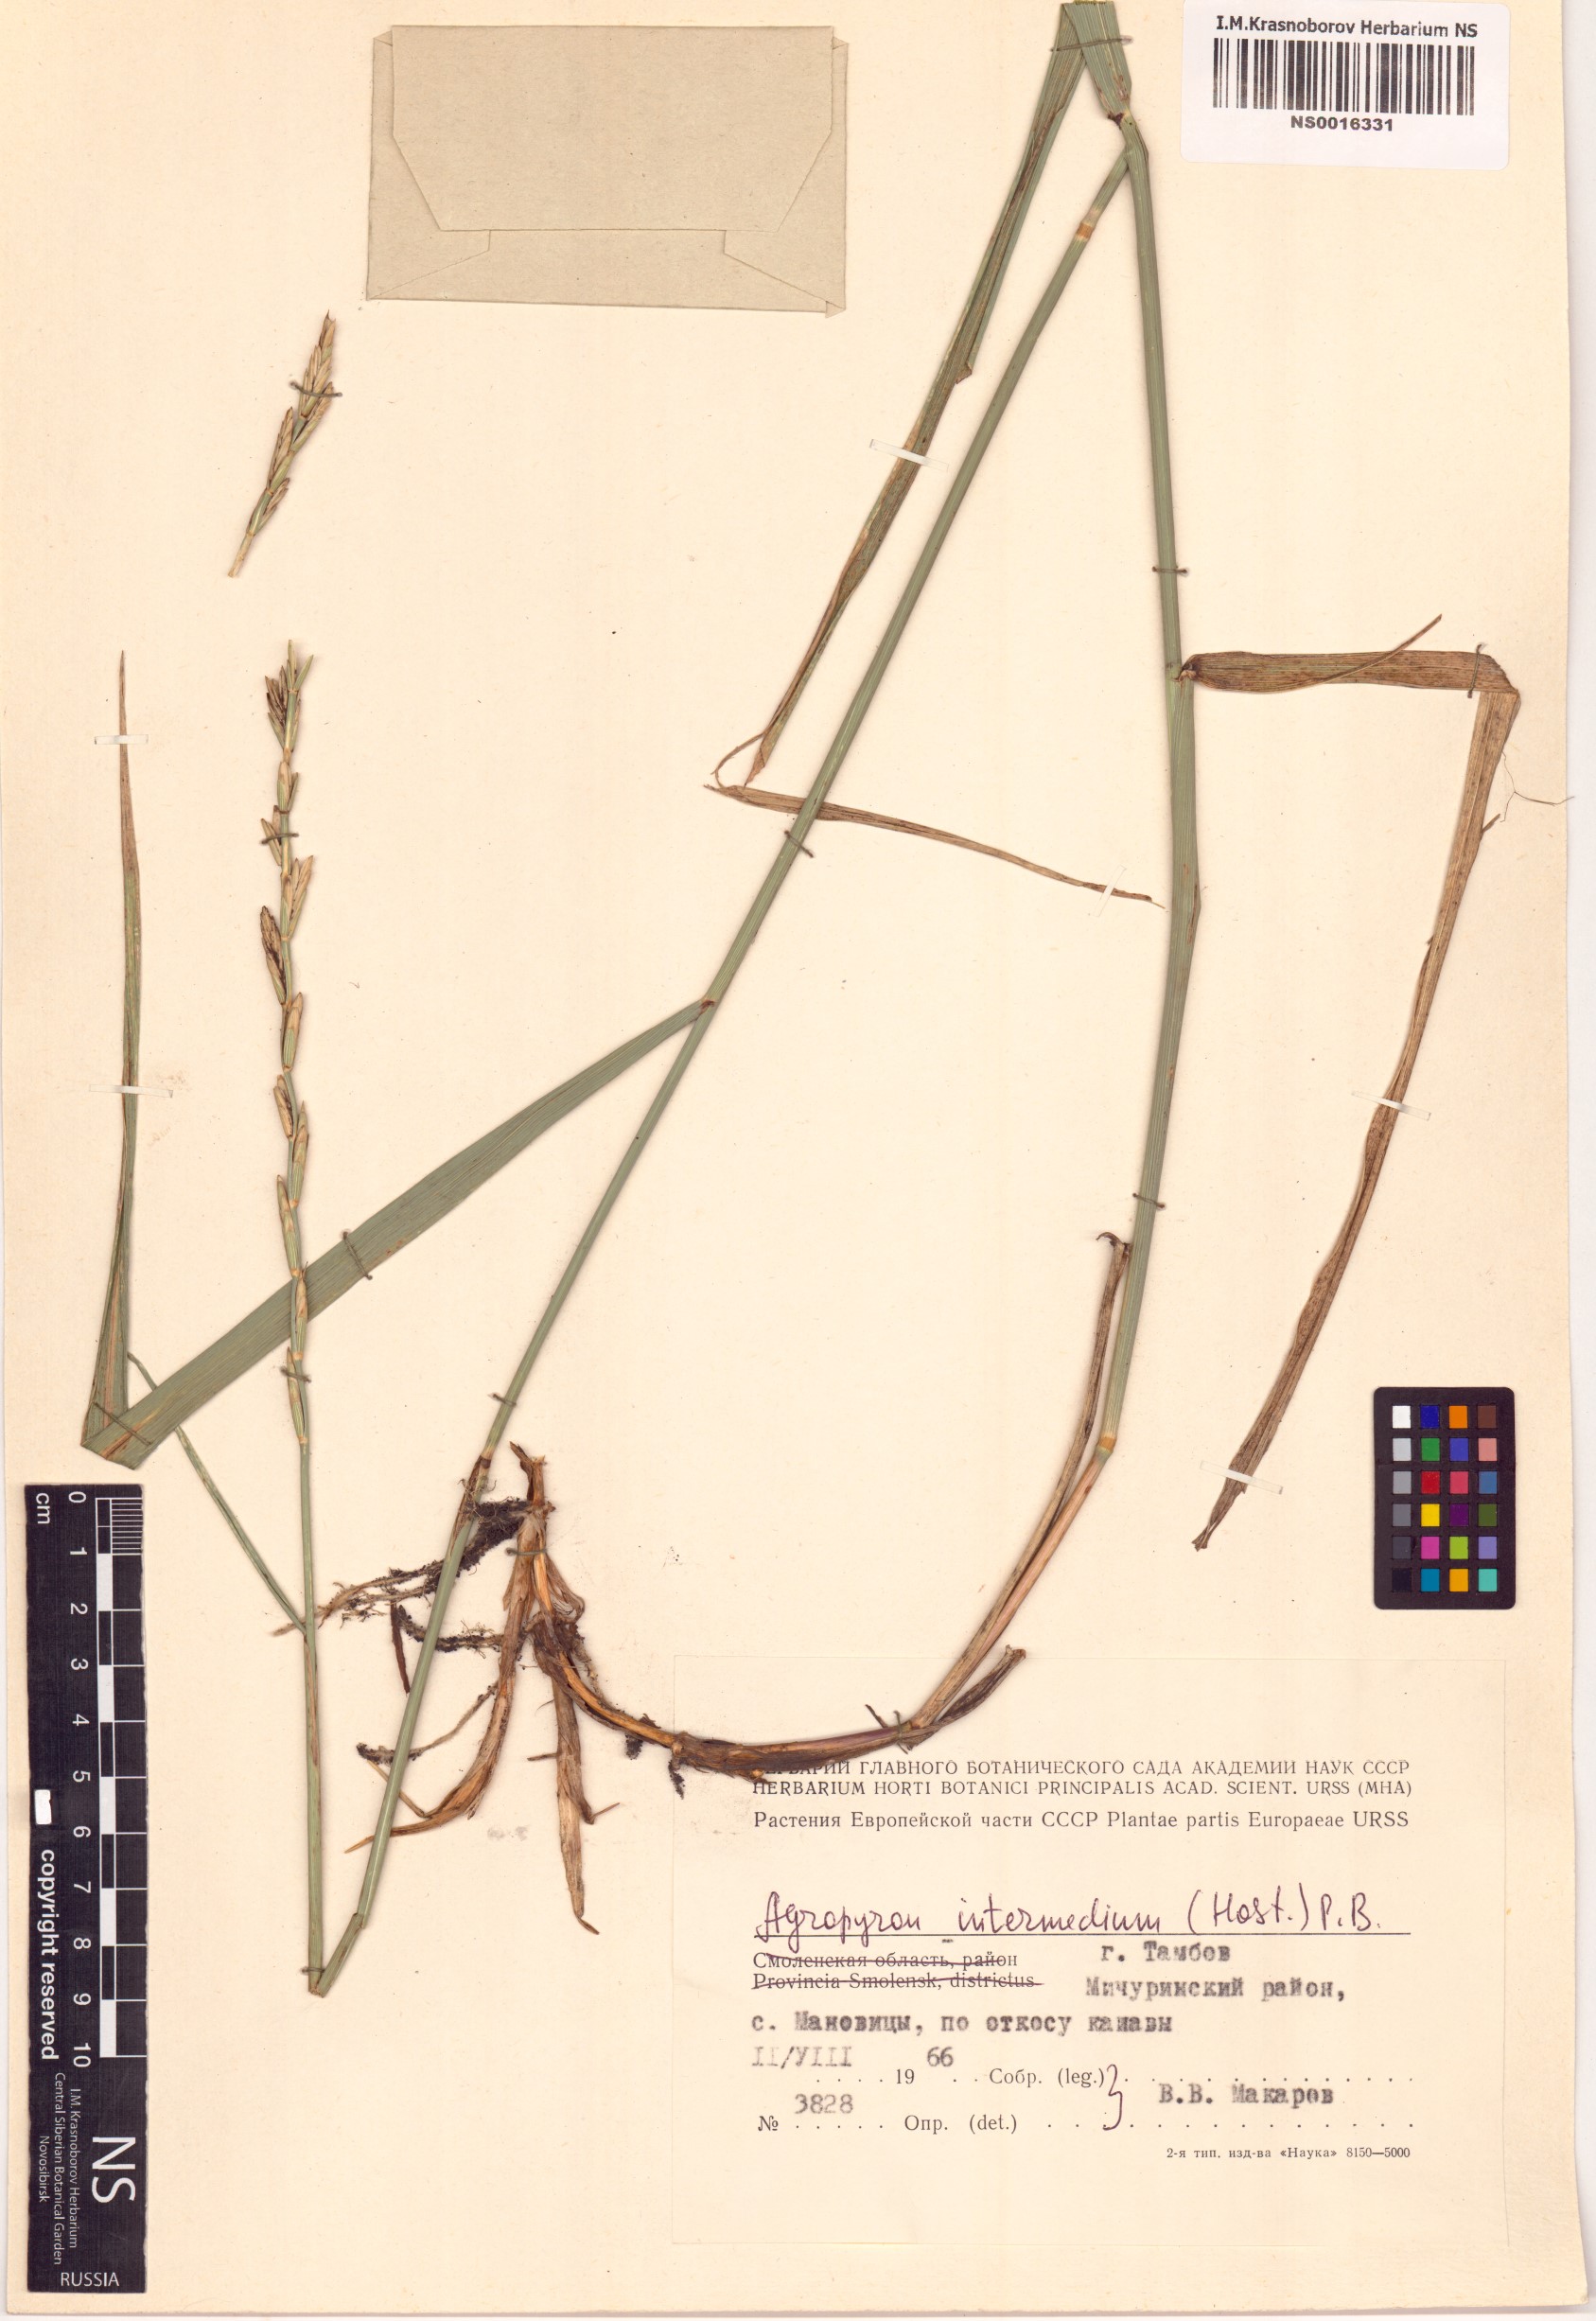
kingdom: Plantae
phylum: Tracheophyta
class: Liliopsida
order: Poales
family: Poaceae
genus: Thinopyrum
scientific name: Thinopyrum intermedium
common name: Intermediate wheatgrass
